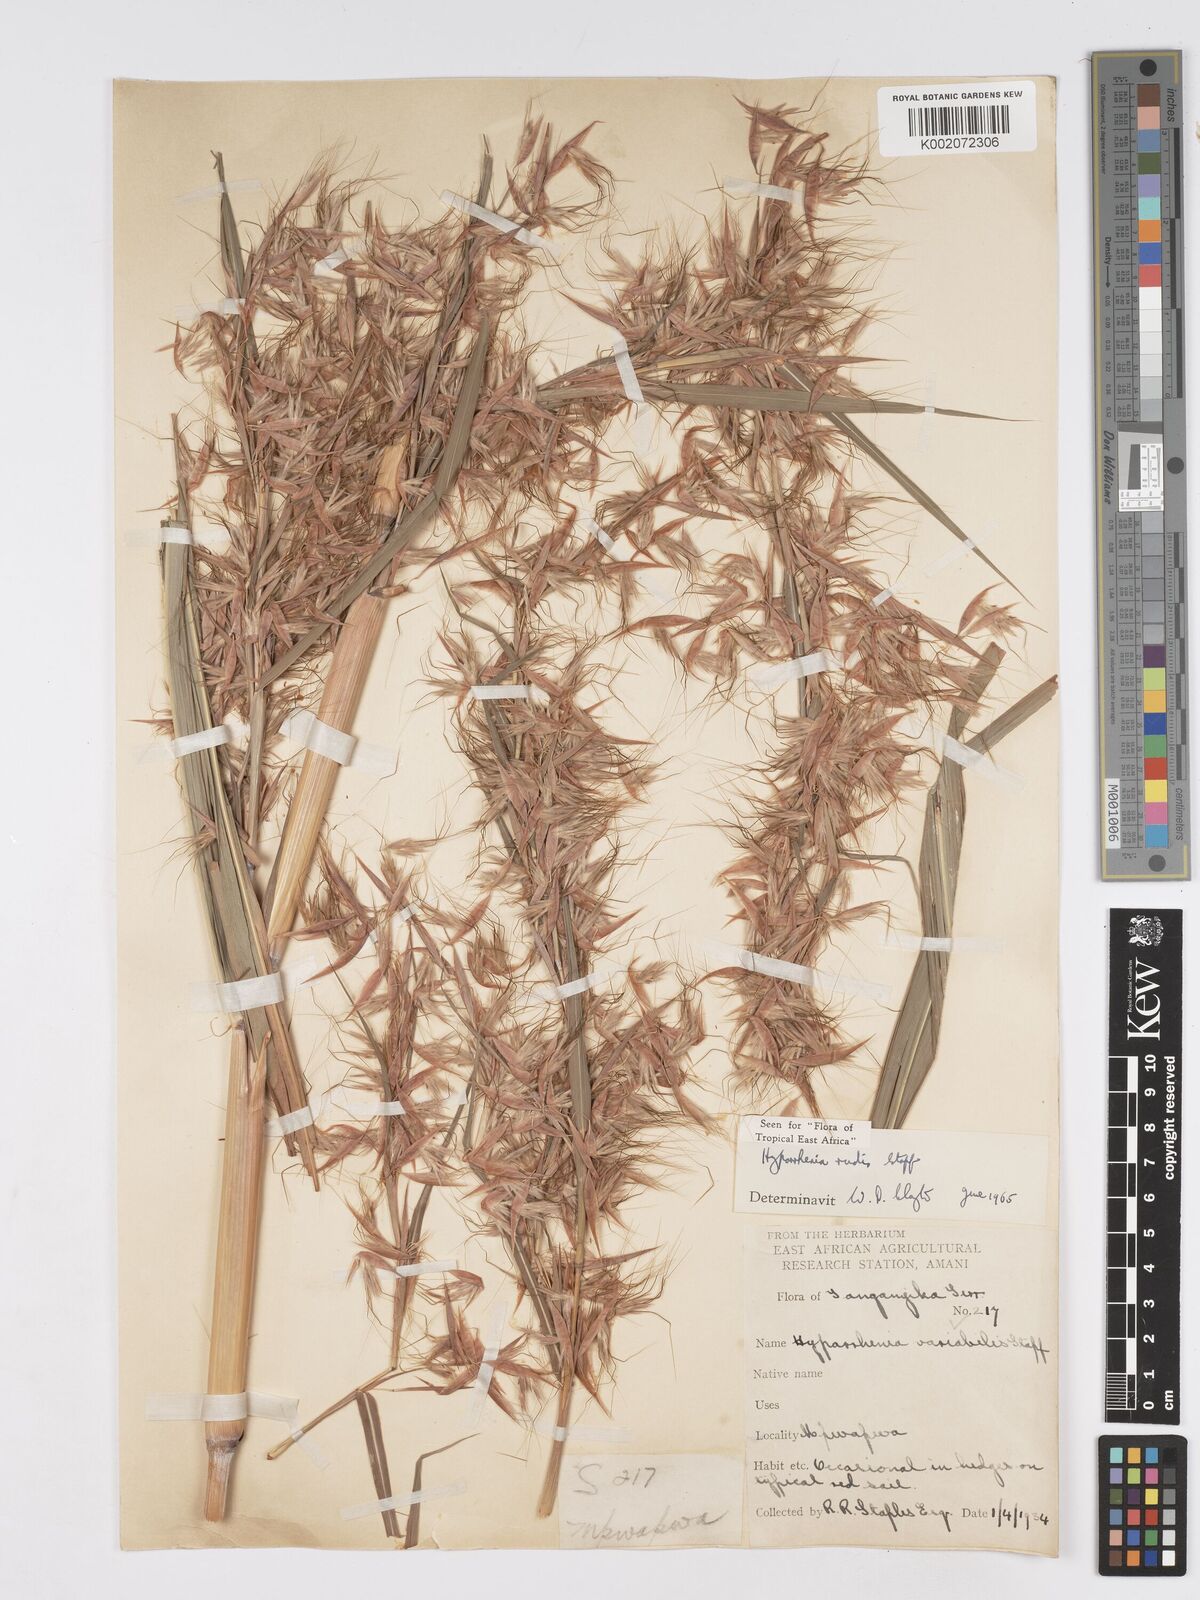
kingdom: Plantae
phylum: Tracheophyta
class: Liliopsida
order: Poales
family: Poaceae
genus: Hyparrhenia
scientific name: Hyparrhenia rudis
